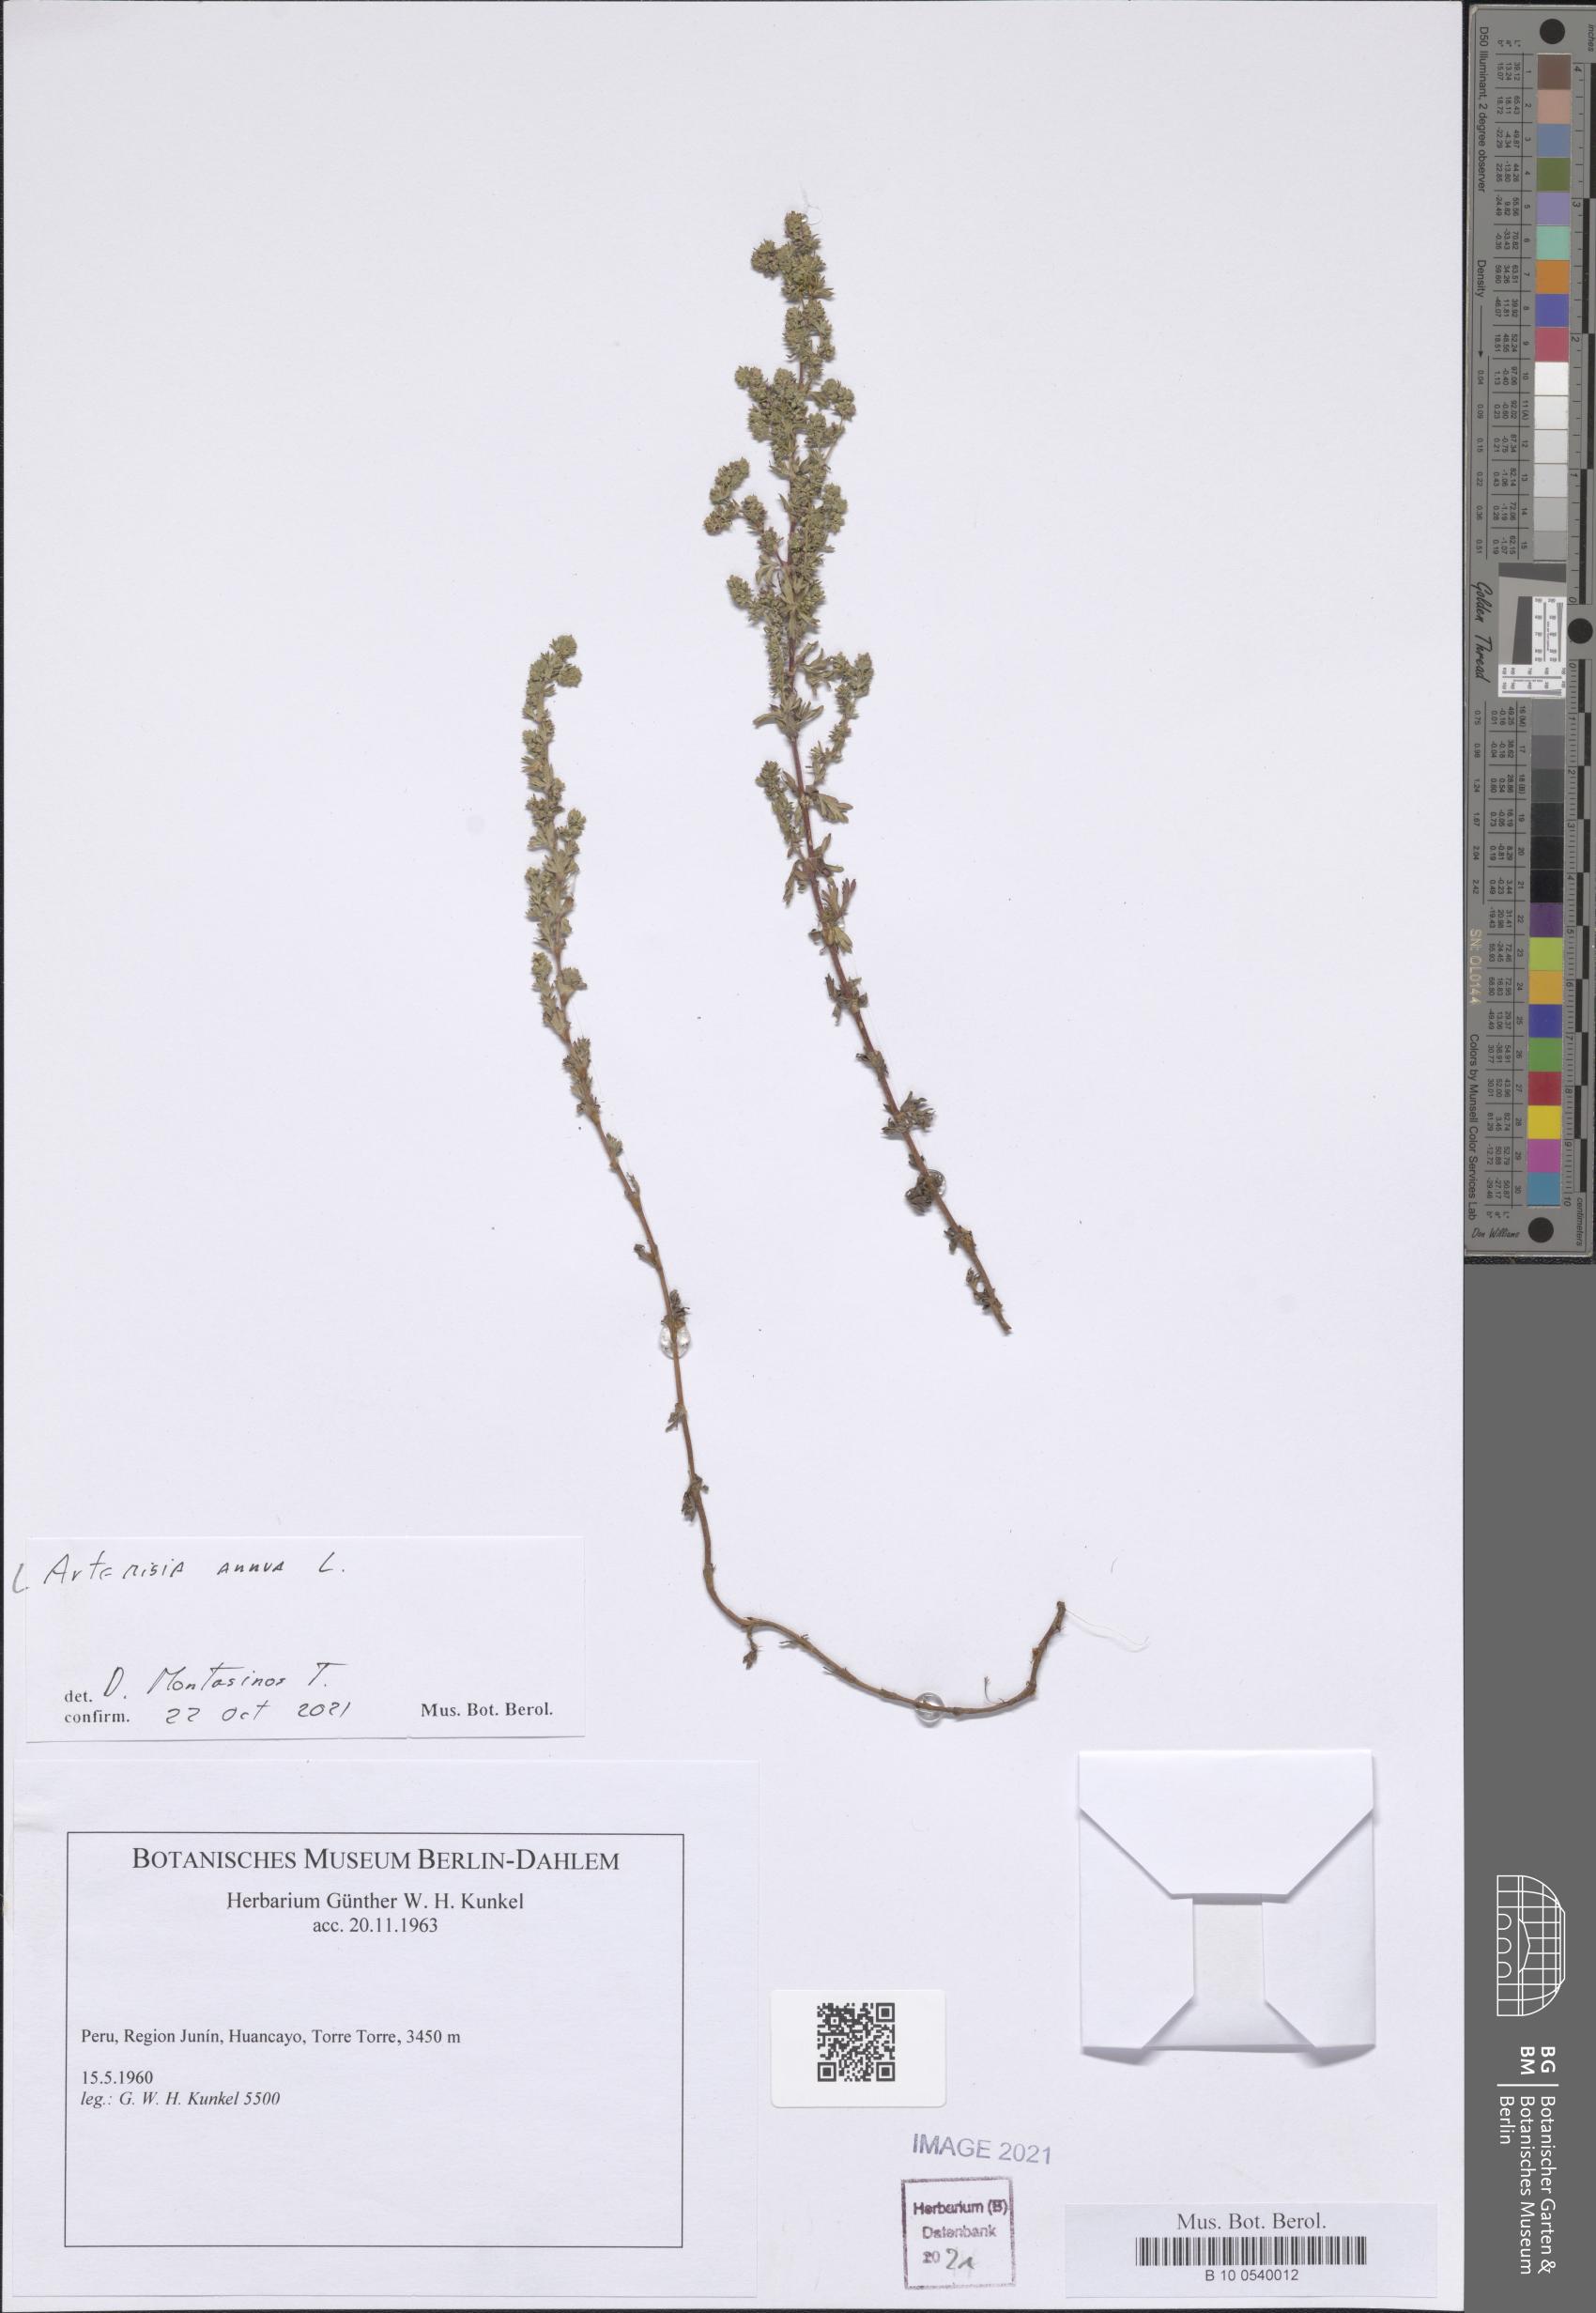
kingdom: Plantae
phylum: Tracheophyta
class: Magnoliopsida
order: Asterales
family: Asteraceae
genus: Artemisia
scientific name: Artemisia annua
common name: Sweet sagewort
